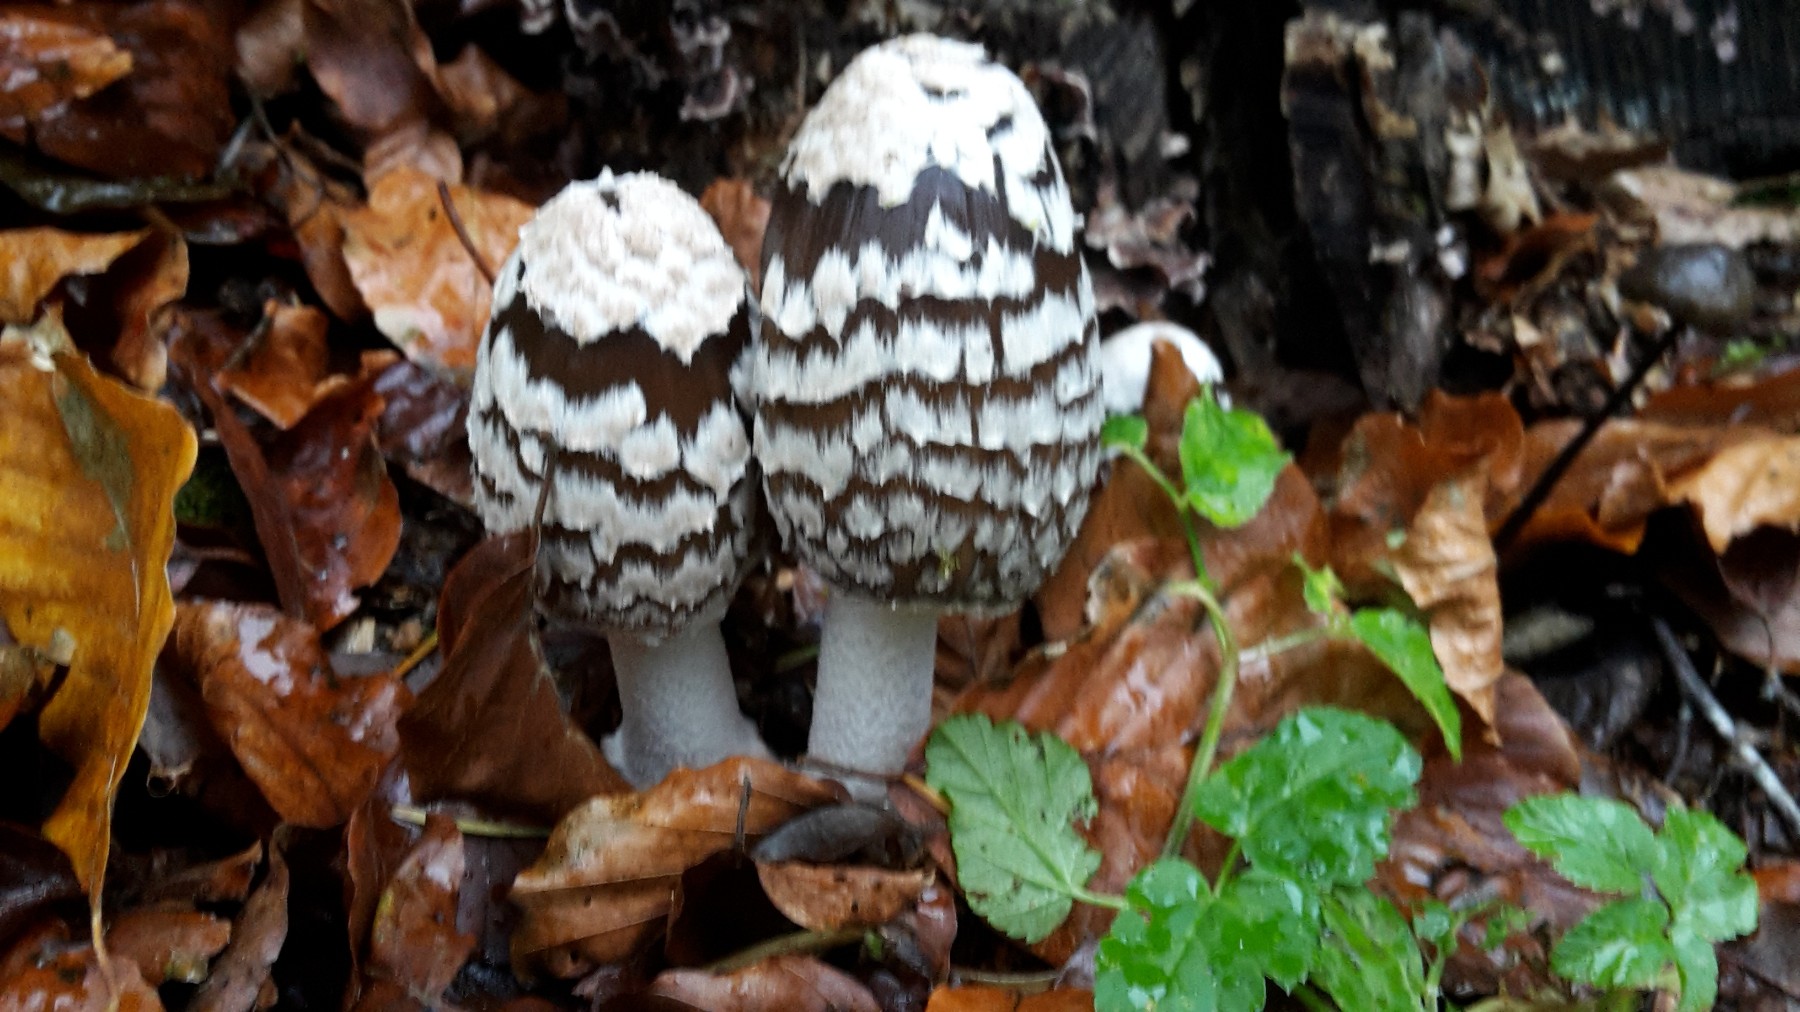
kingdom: Fungi
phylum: Basidiomycota
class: Agaricomycetes
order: Agaricales
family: Psathyrellaceae
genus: Coprinopsis
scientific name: Coprinopsis picacea
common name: skade-blækhat
